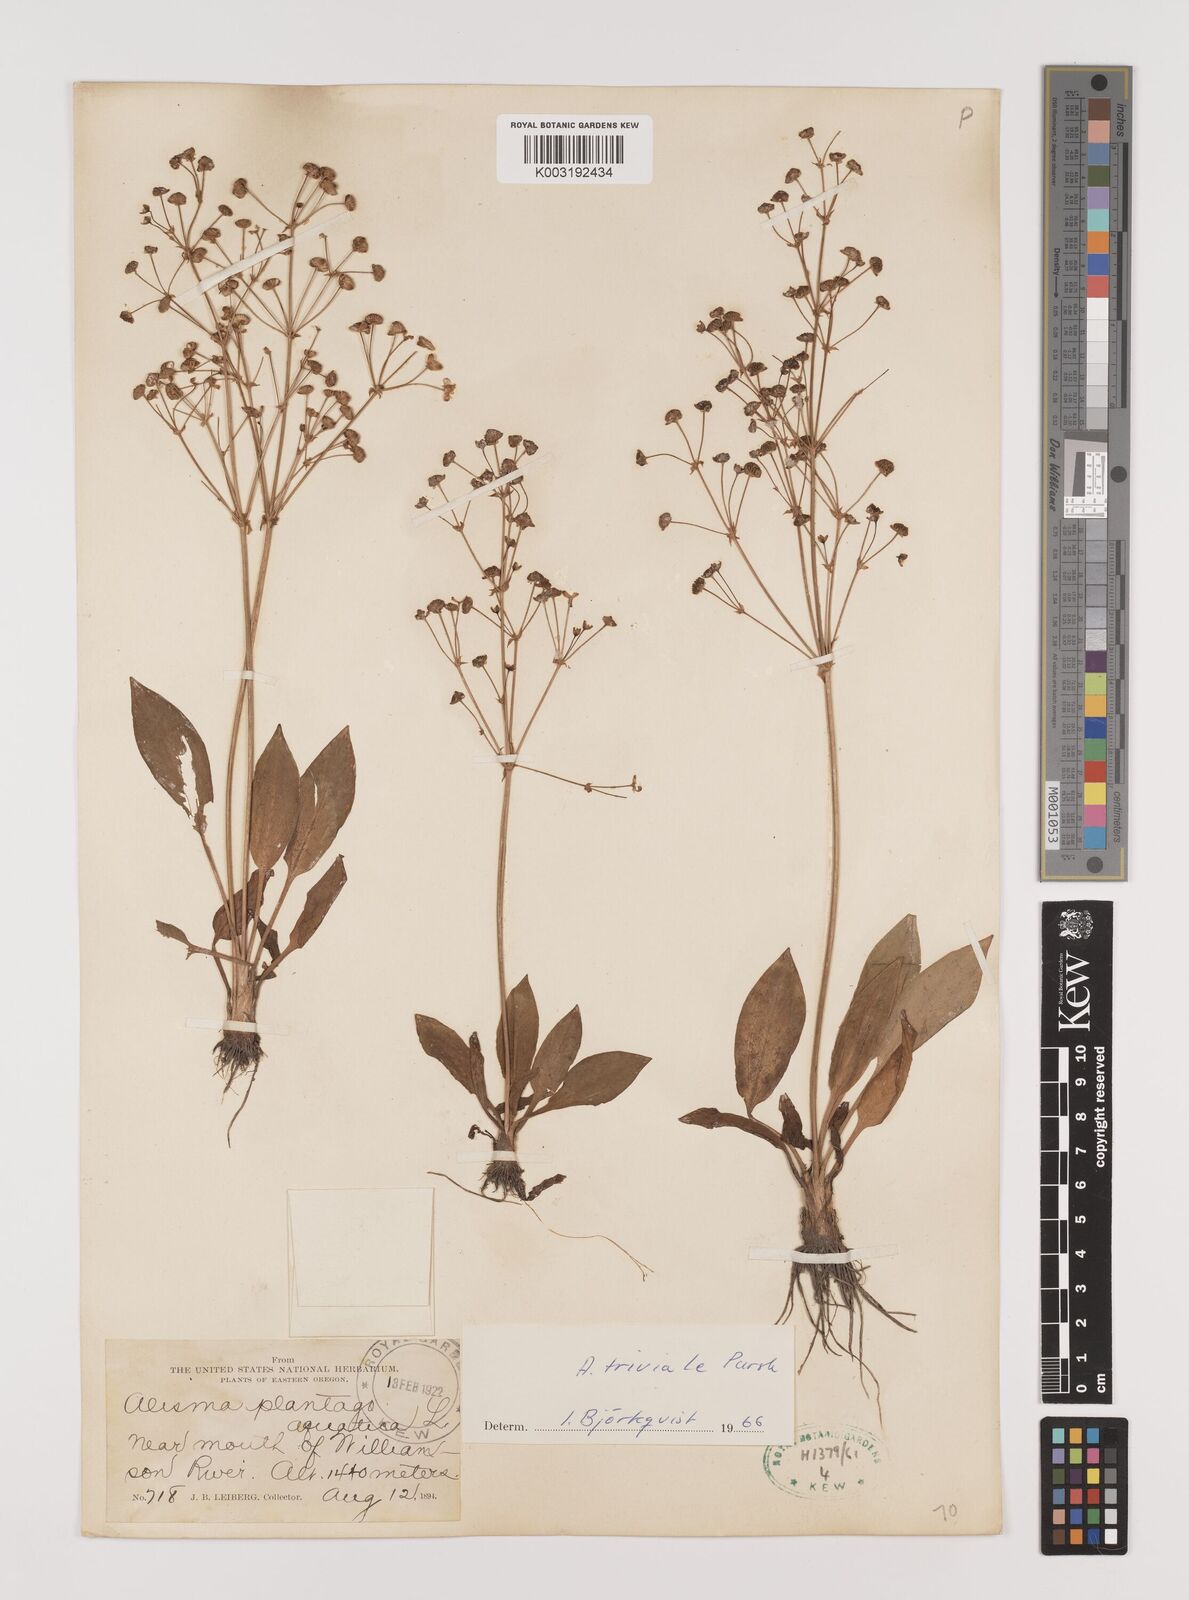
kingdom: Plantae
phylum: Tracheophyta
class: Liliopsida
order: Alismatales
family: Alismataceae
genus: Alisma
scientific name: Alisma triviale
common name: Northern water-plantain
